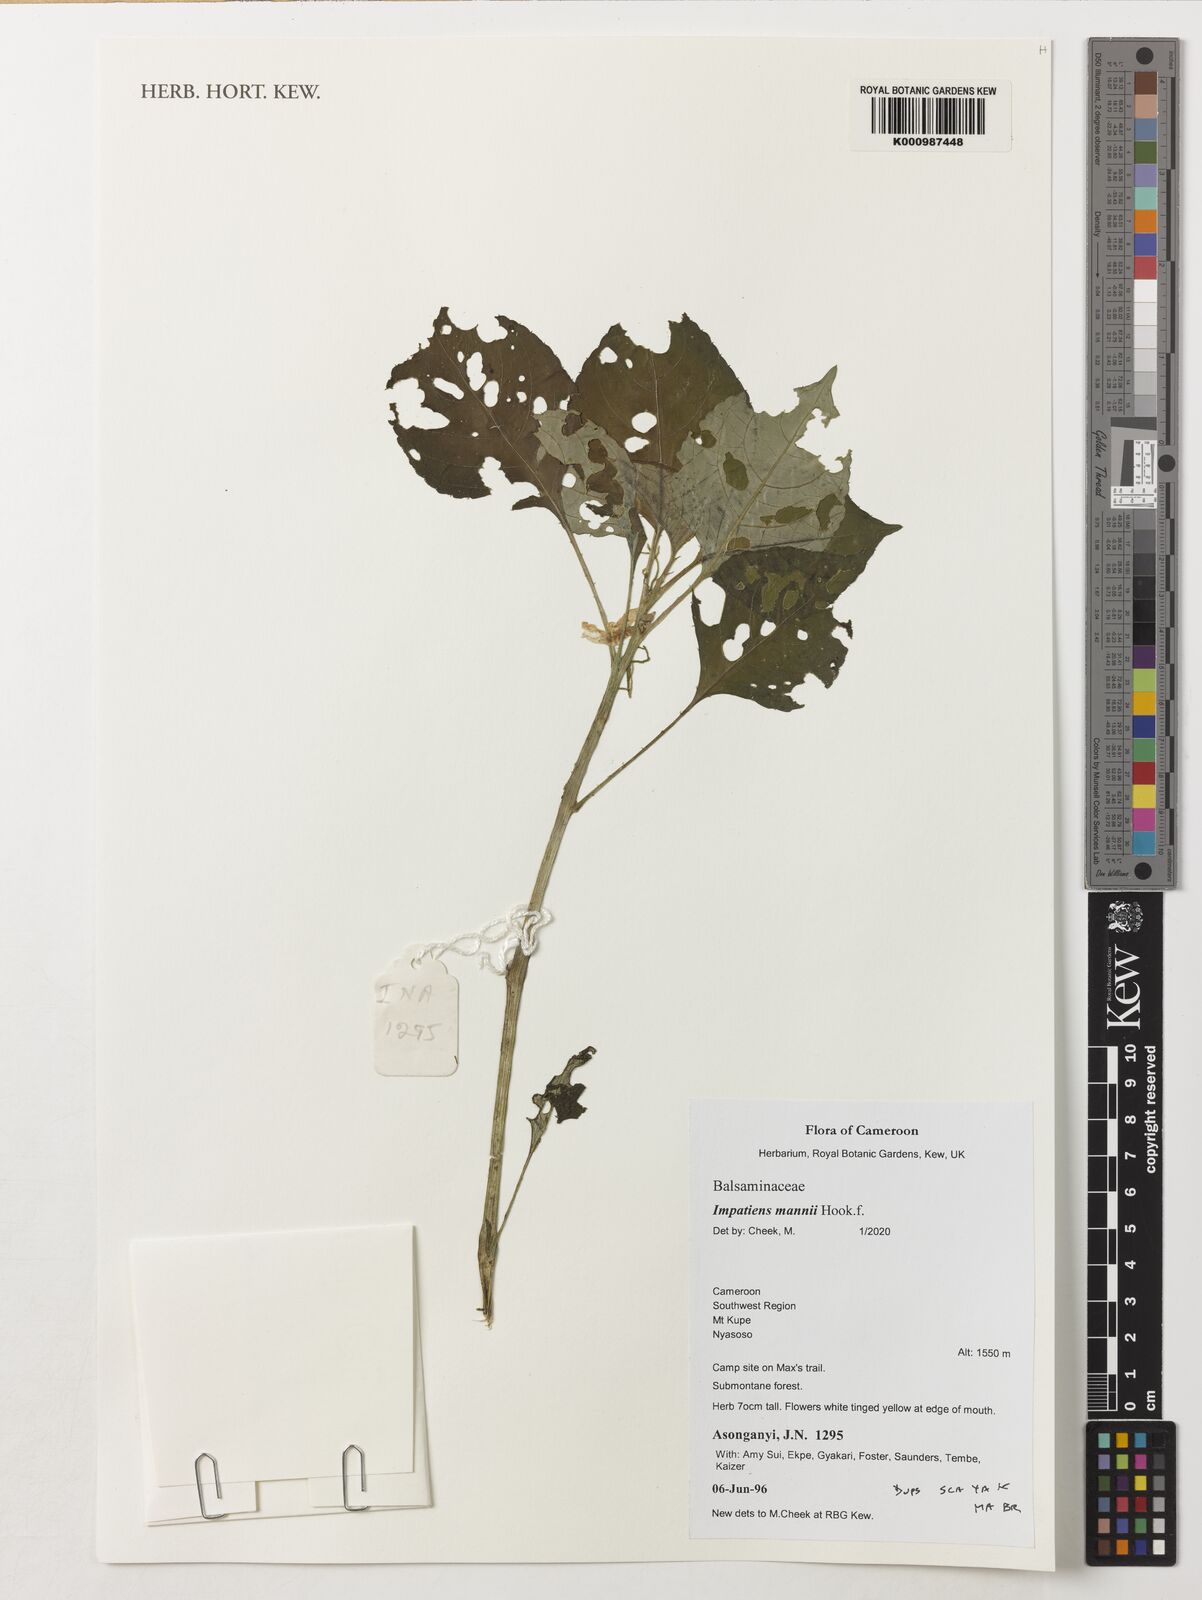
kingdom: Plantae
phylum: Tracheophyta
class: Magnoliopsida
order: Ericales
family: Balsaminaceae
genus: Impatiens
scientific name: Impatiens mannii
